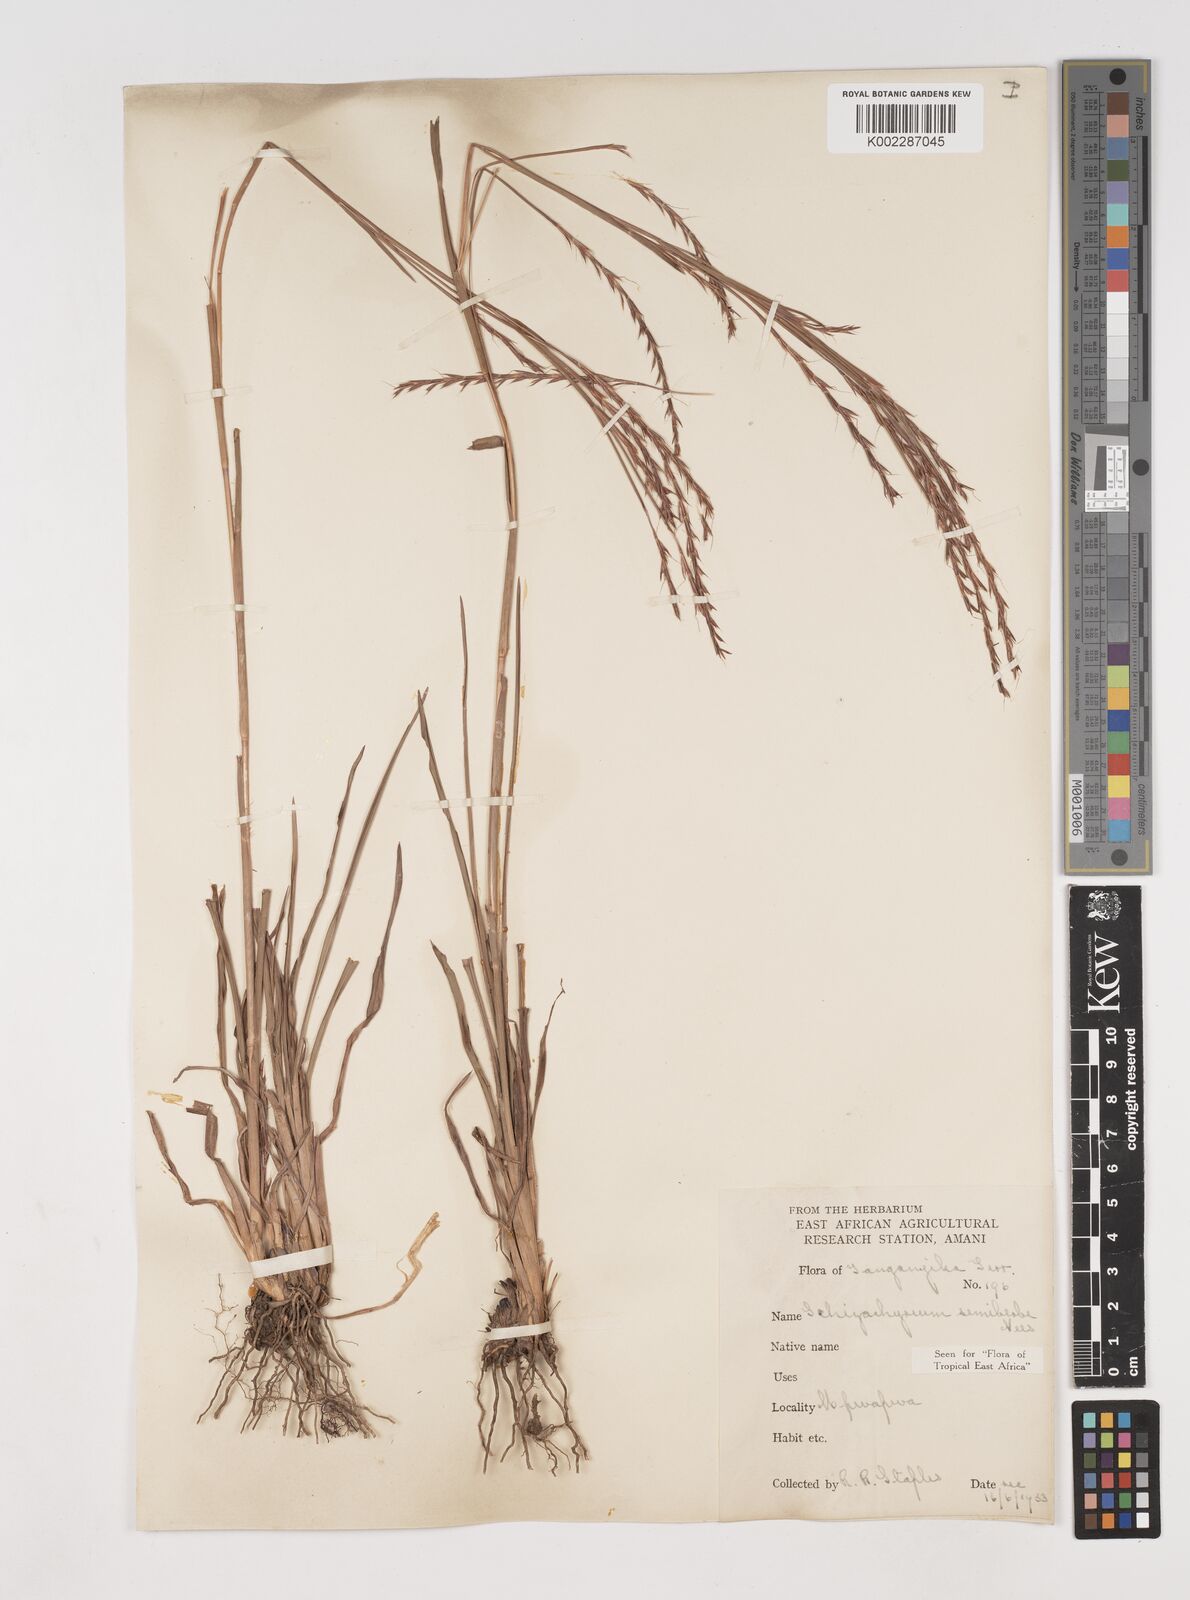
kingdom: Plantae
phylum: Tracheophyta
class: Liliopsida
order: Poales
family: Poaceae
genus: Schizachyrium
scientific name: Schizachyrium sanguineum
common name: Crimson bluestem
